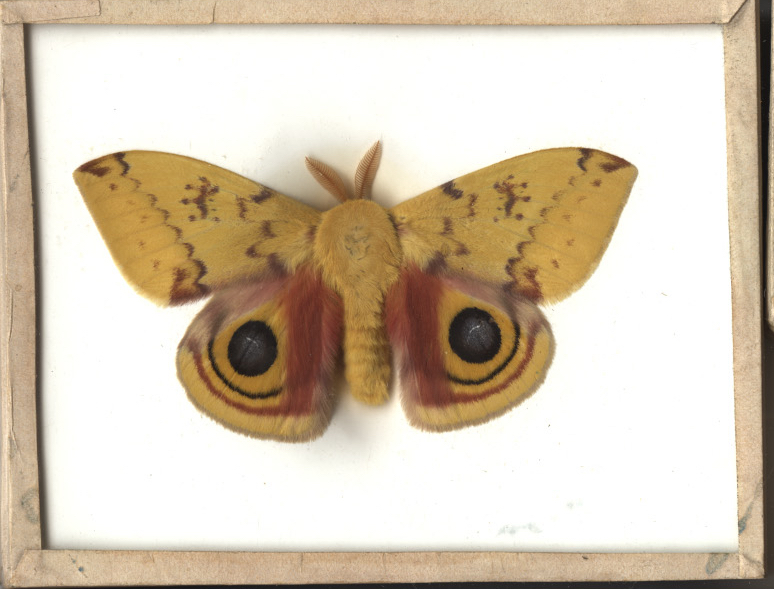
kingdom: Animalia
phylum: Arthropoda
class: Insecta
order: Lepidoptera
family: Saturniidae
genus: Automeris
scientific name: Automeris io
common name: Io Moth
